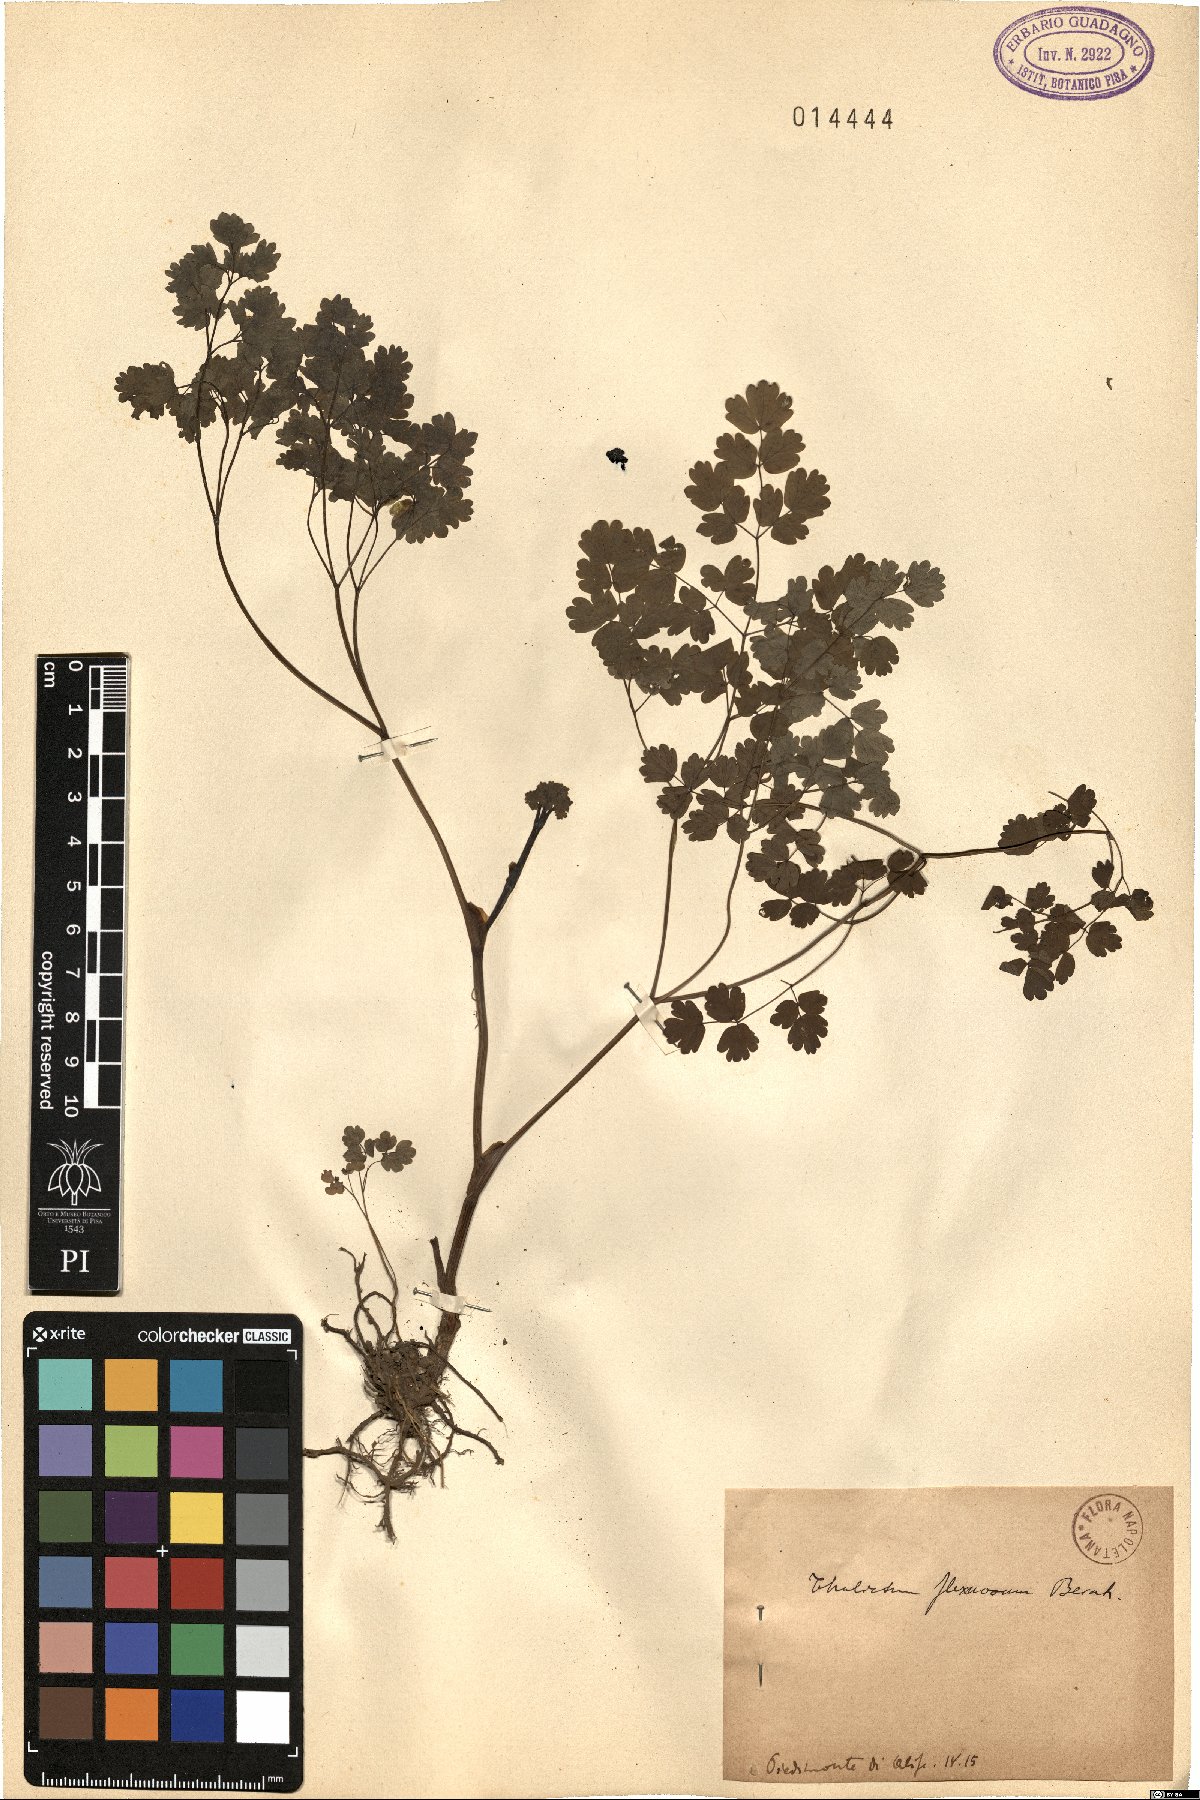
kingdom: Plantae
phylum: Tracheophyta
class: Magnoliopsida
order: Ranunculales
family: Ranunculaceae
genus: Thalictrum
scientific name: Thalictrum minus
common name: Lesser meadow-rue
